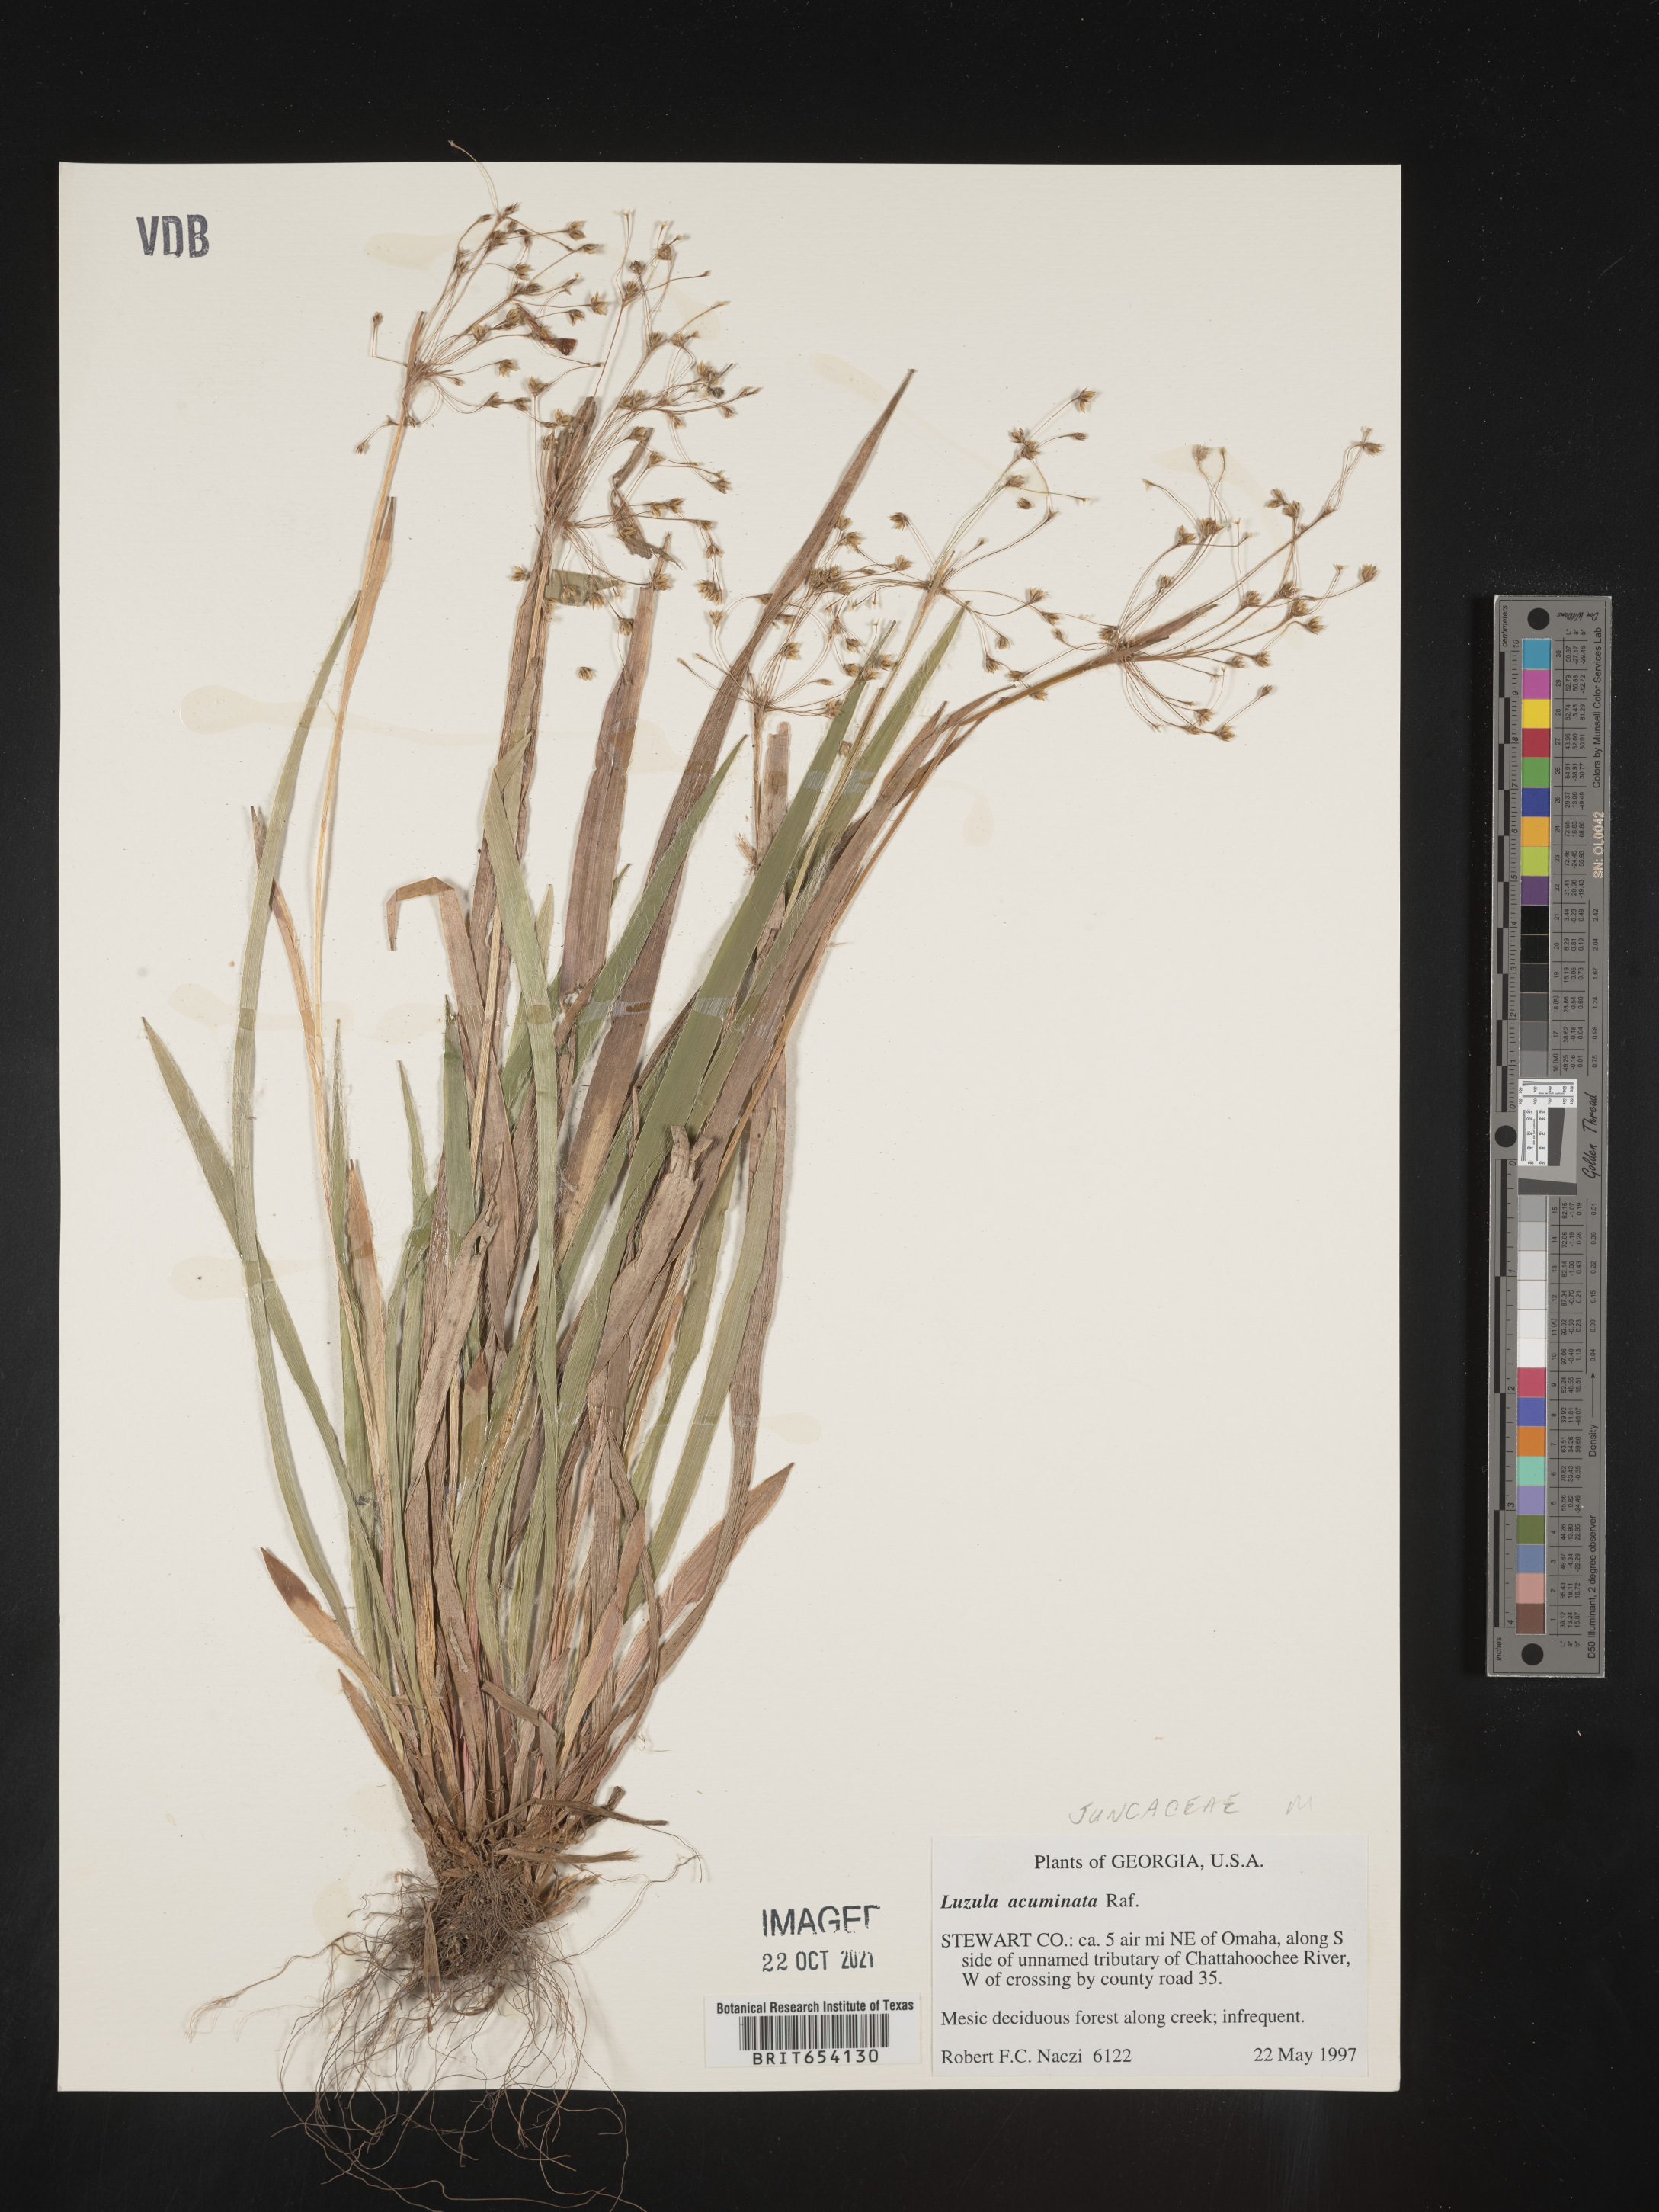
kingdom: Plantae
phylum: Tracheophyta
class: Liliopsida
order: Poales
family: Juncaceae
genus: Luzula
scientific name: Luzula acuminata
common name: Hairy woodrush
